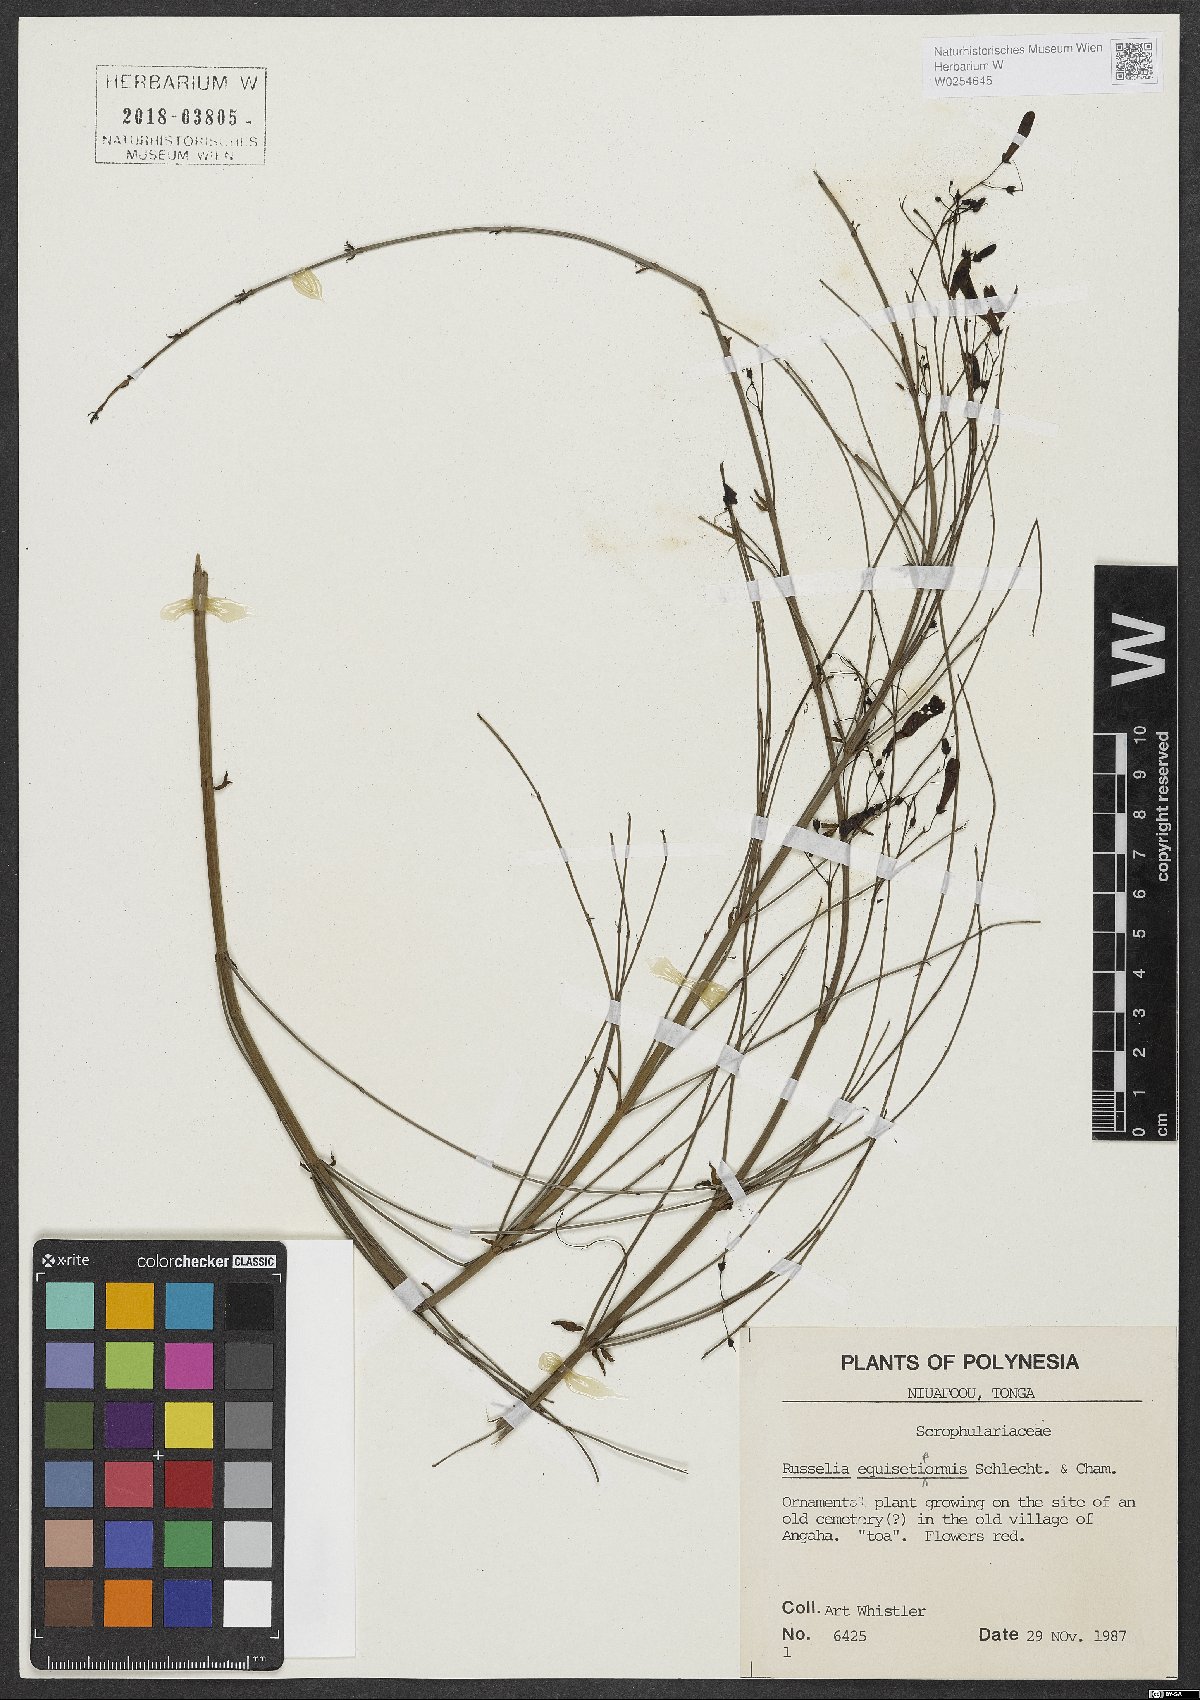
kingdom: Plantae
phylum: Tracheophyta
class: Magnoliopsida
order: Lamiales
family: Plantaginaceae
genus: Russelia
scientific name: Russelia equisetiformis
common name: Fountainbush
